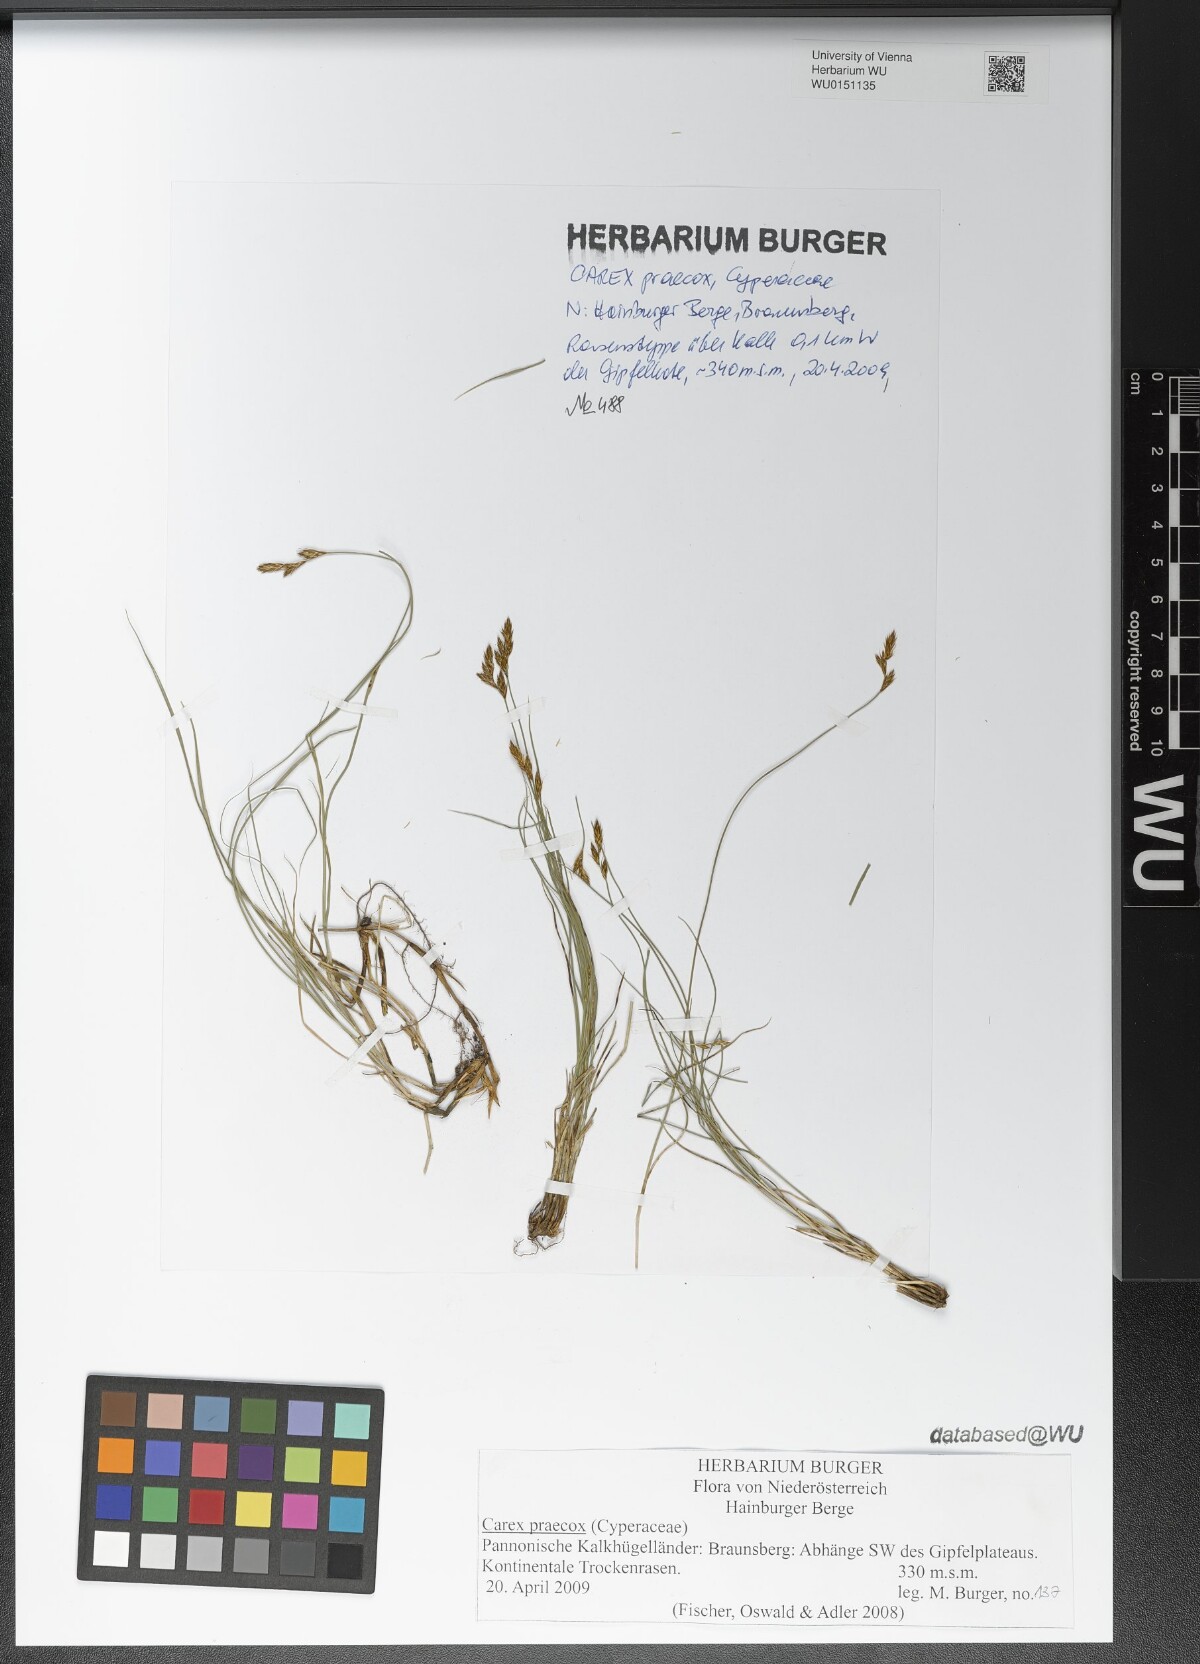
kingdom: Plantae
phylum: Tracheophyta
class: Liliopsida
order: Poales
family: Cyperaceae
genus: Carex
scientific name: Carex praecox
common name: Early sedge
